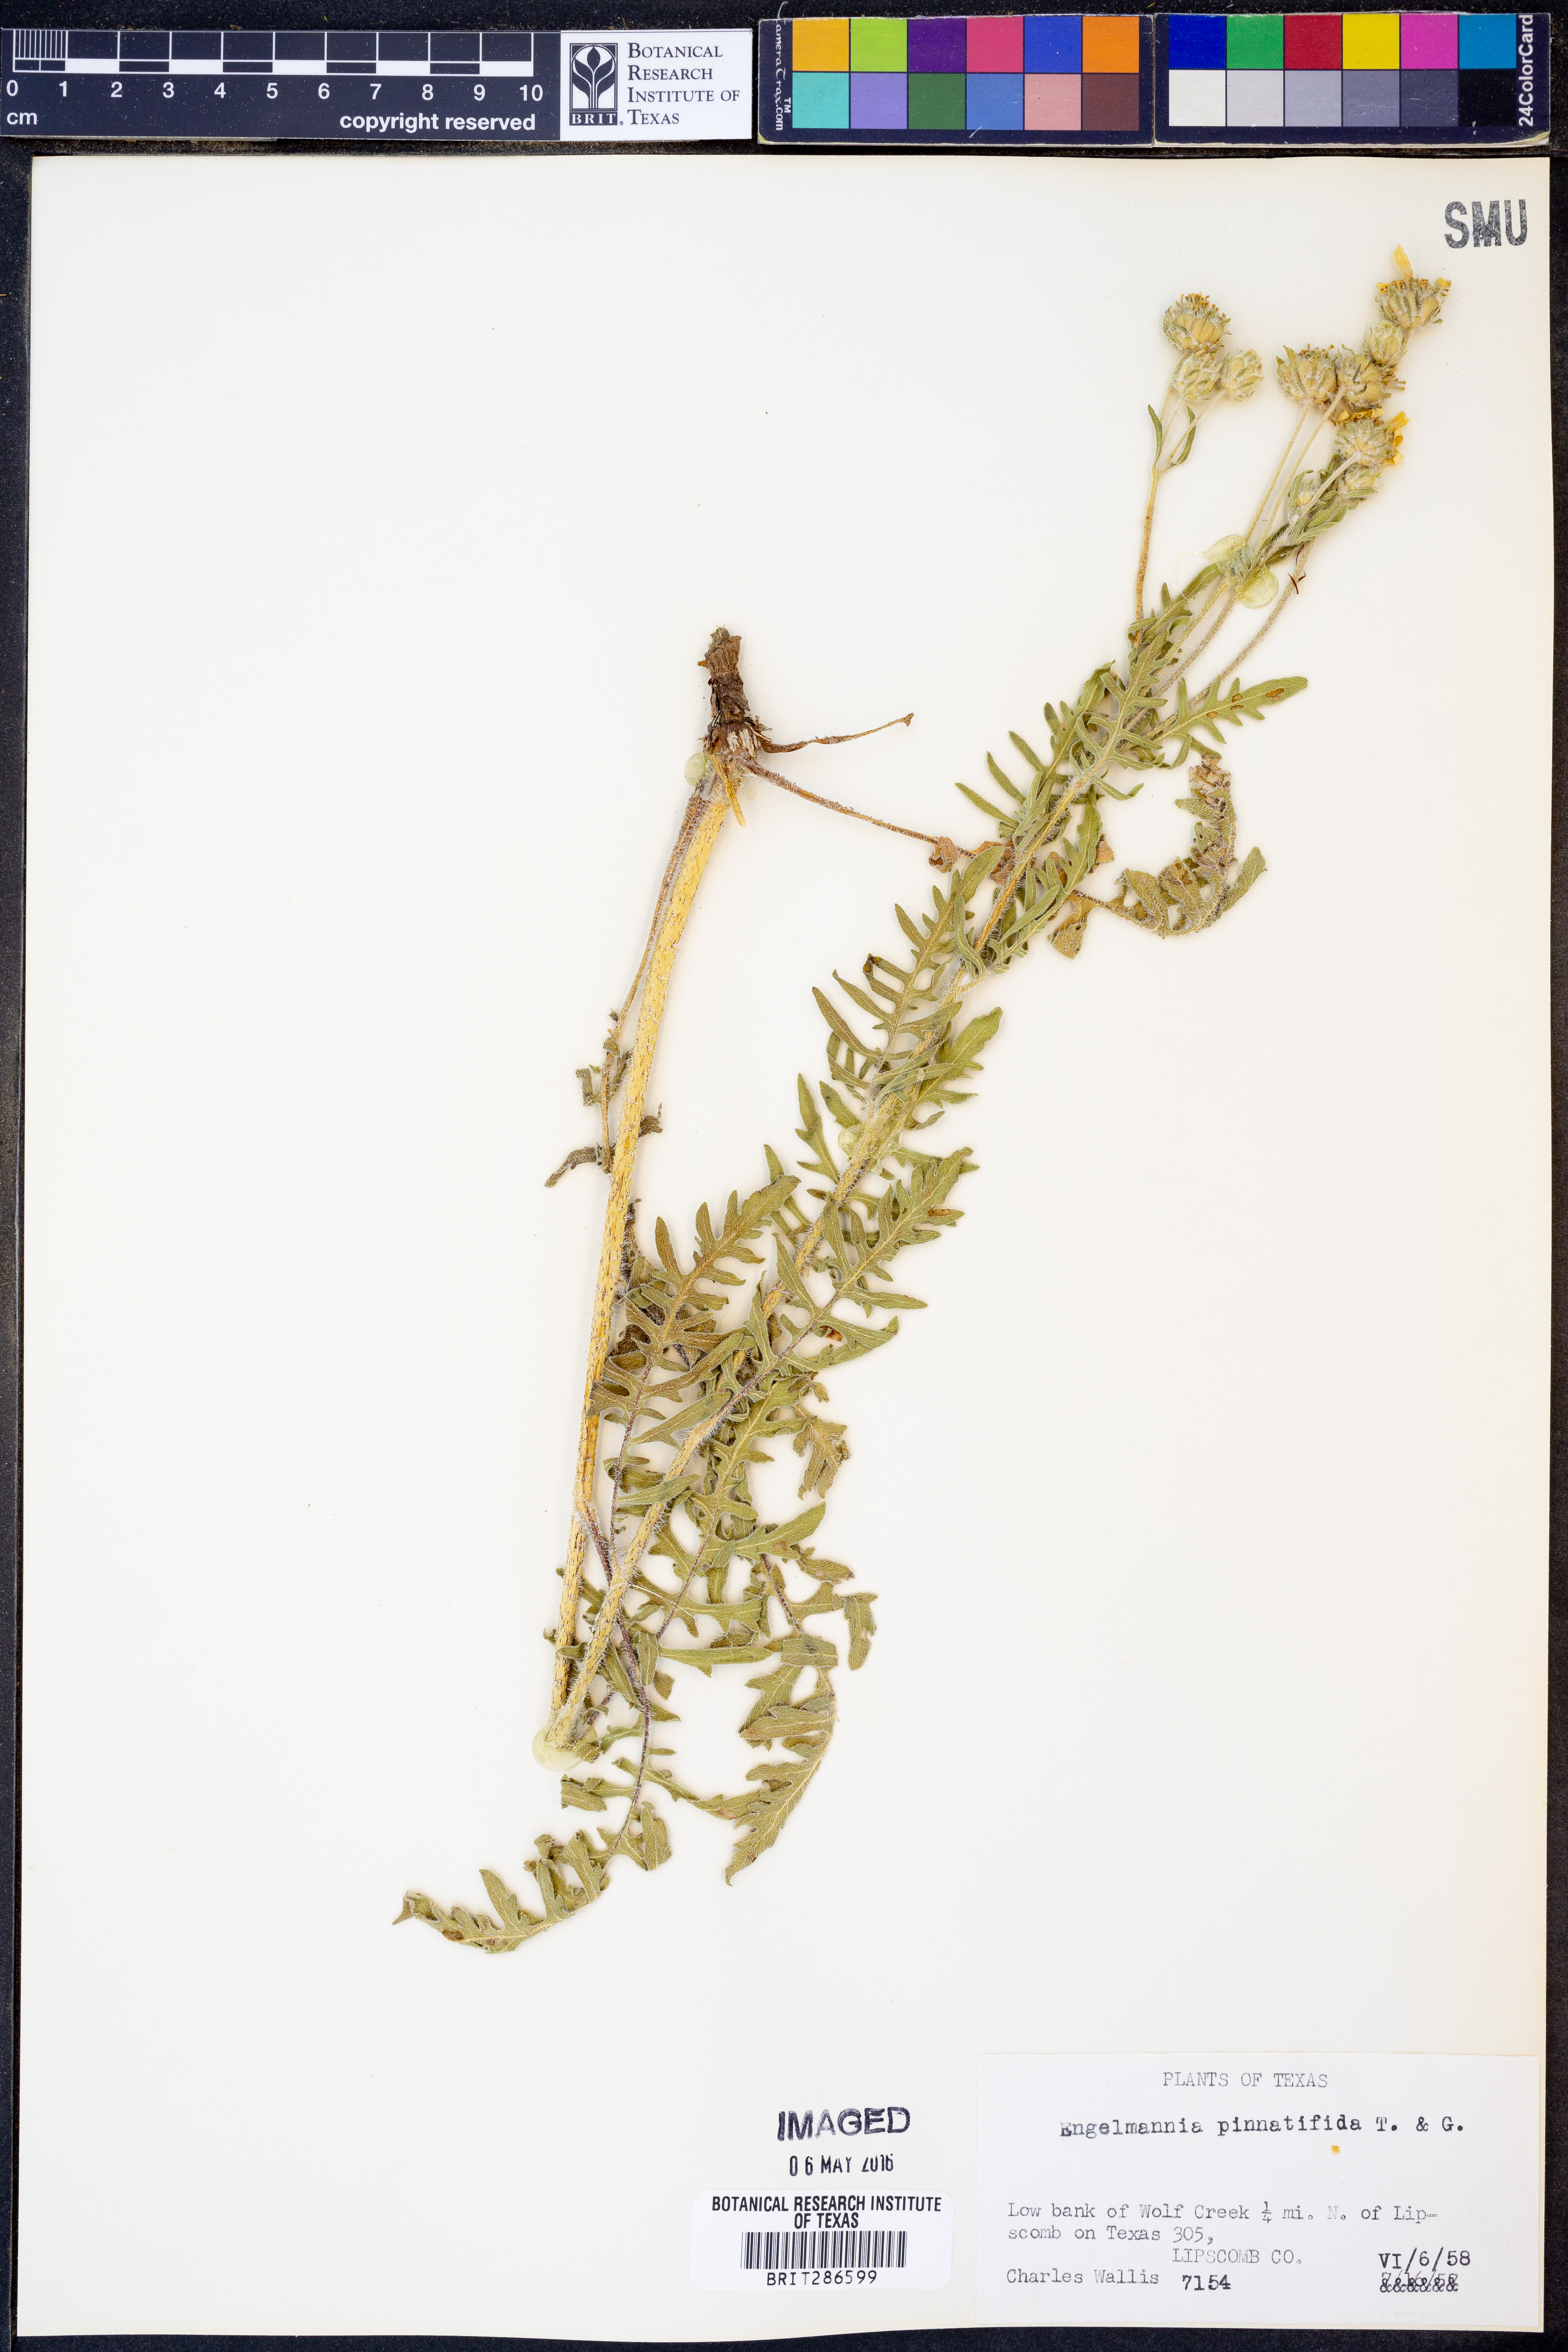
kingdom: Plantae
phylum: Tracheophyta
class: Magnoliopsida
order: Asterales
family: Asteraceae
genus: Engelmannia
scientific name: Engelmannia peristenia
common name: Engelmann's daisy
